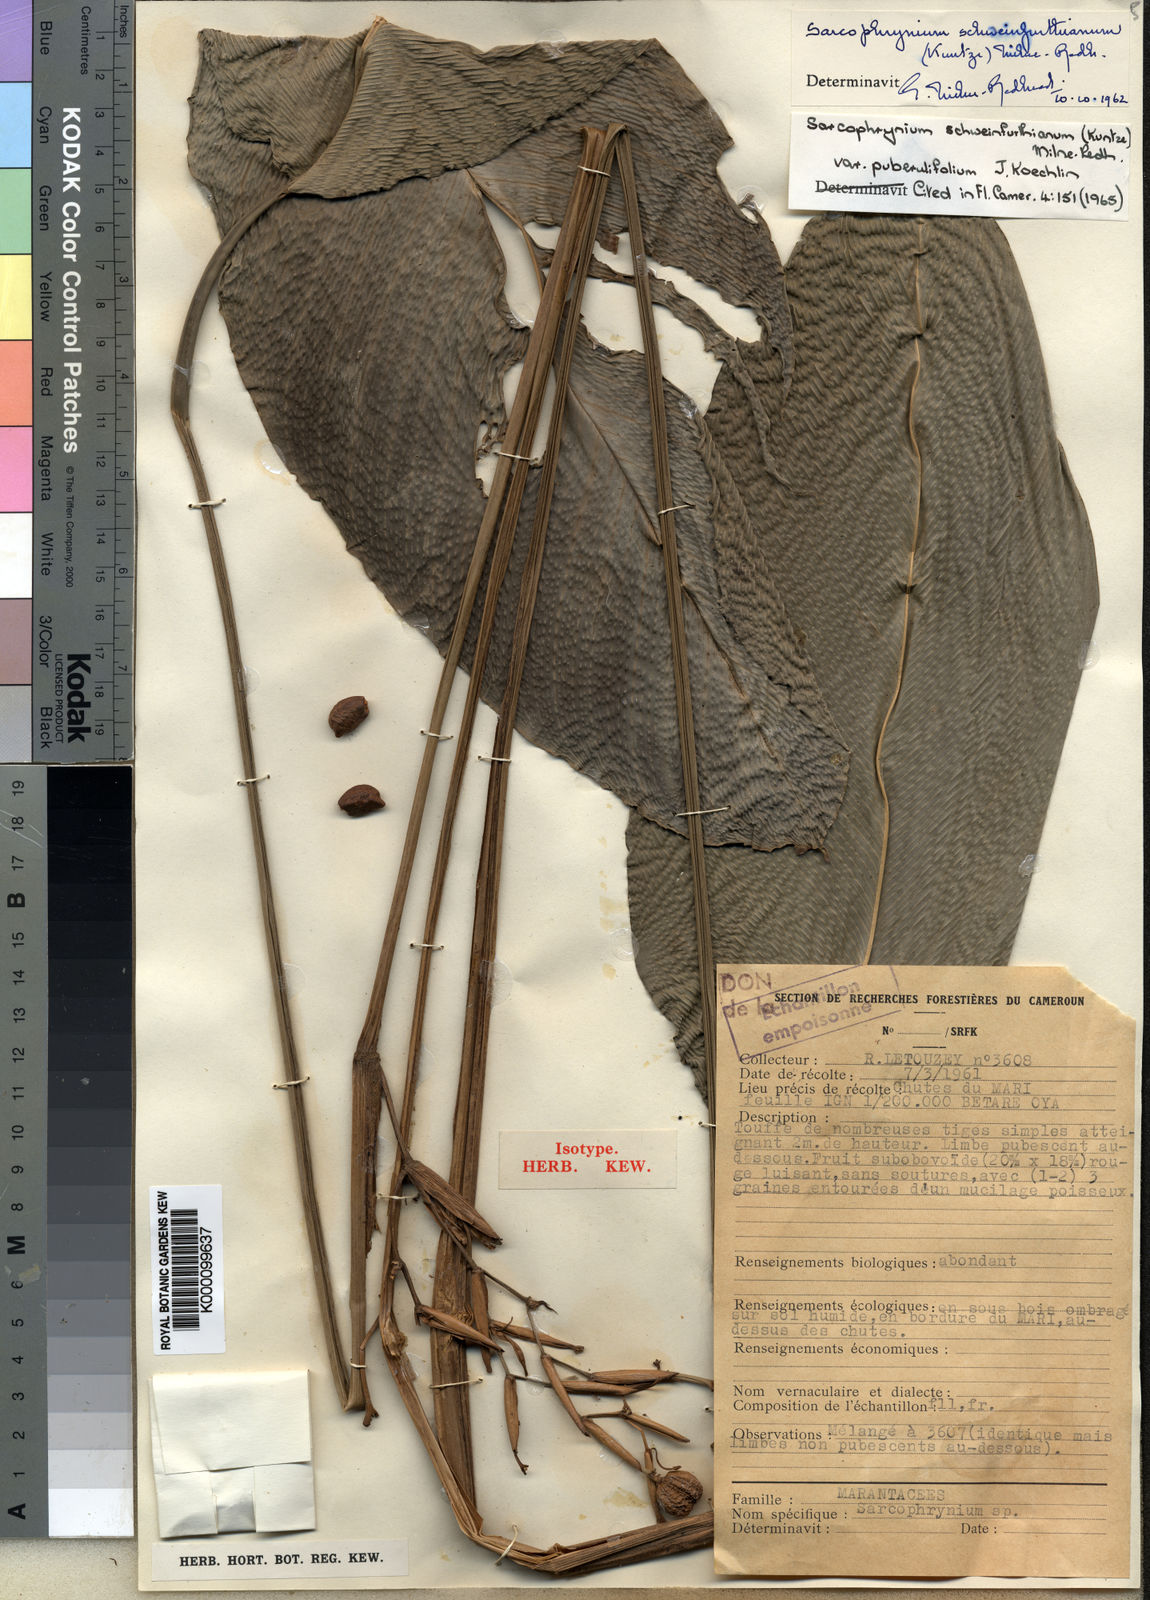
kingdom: Plantae
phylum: Tracheophyta
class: Liliopsida
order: Zingiberales
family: Marantaceae
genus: Sarcophrynium
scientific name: Sarcophrynium schweinfurthianum
